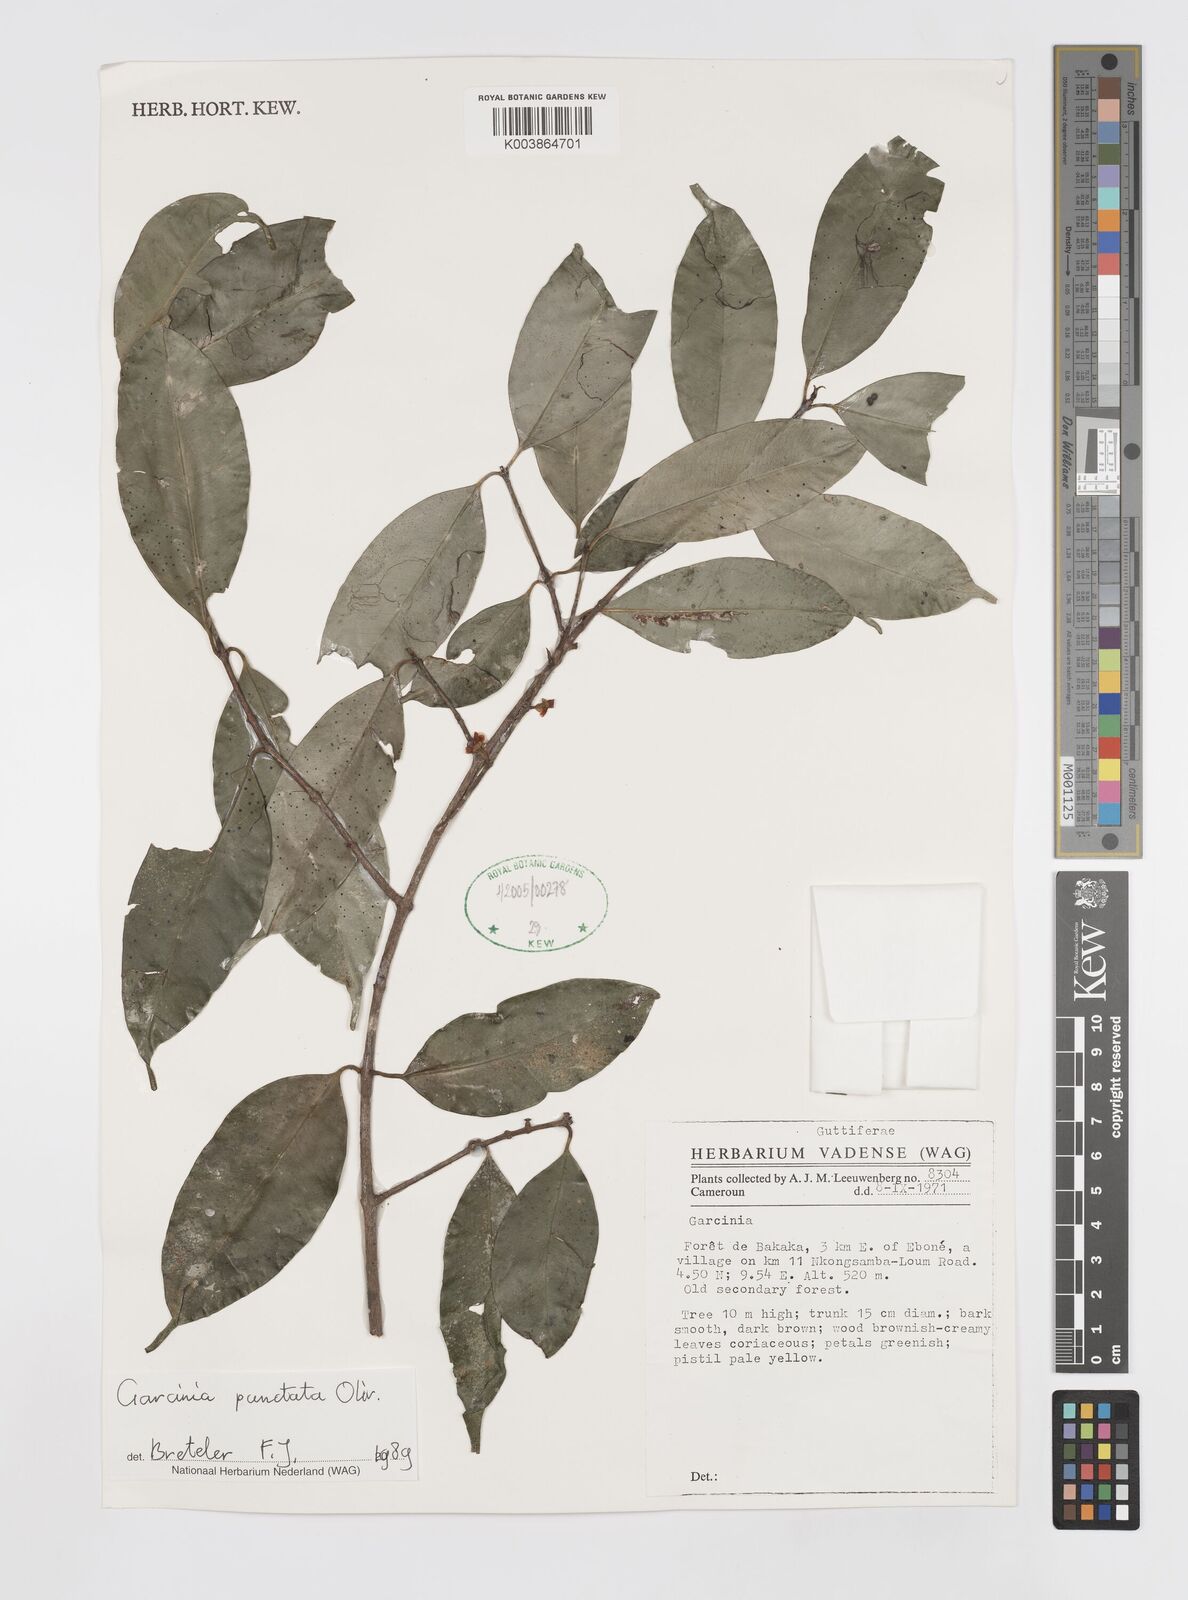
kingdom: Plantae
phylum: Tracheophyta
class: Magnoliopsida
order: Malpighiales
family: Clusiaceae
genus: Garcinia
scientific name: Garcinia punctata
